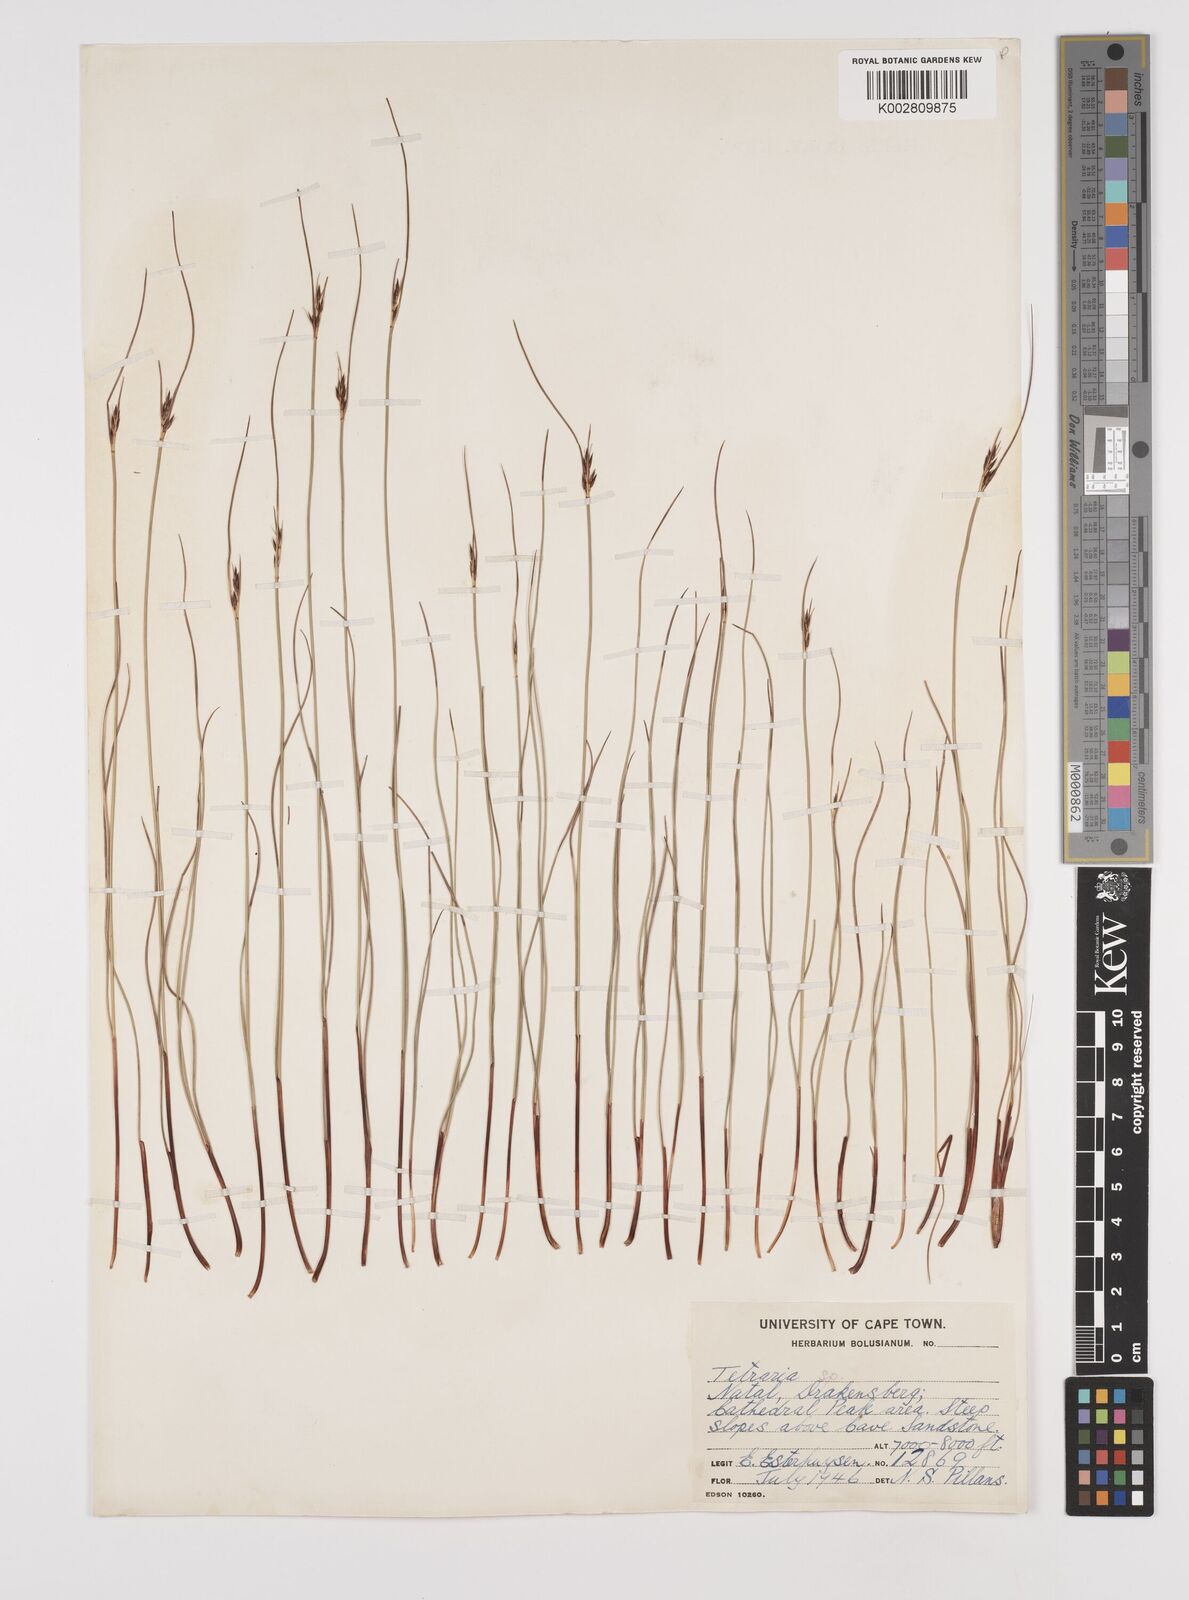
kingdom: Plantae
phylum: Tracheophyta
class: Liliopsida
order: Poales
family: Cyperaceae
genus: Schoenus
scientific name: Schoenus
